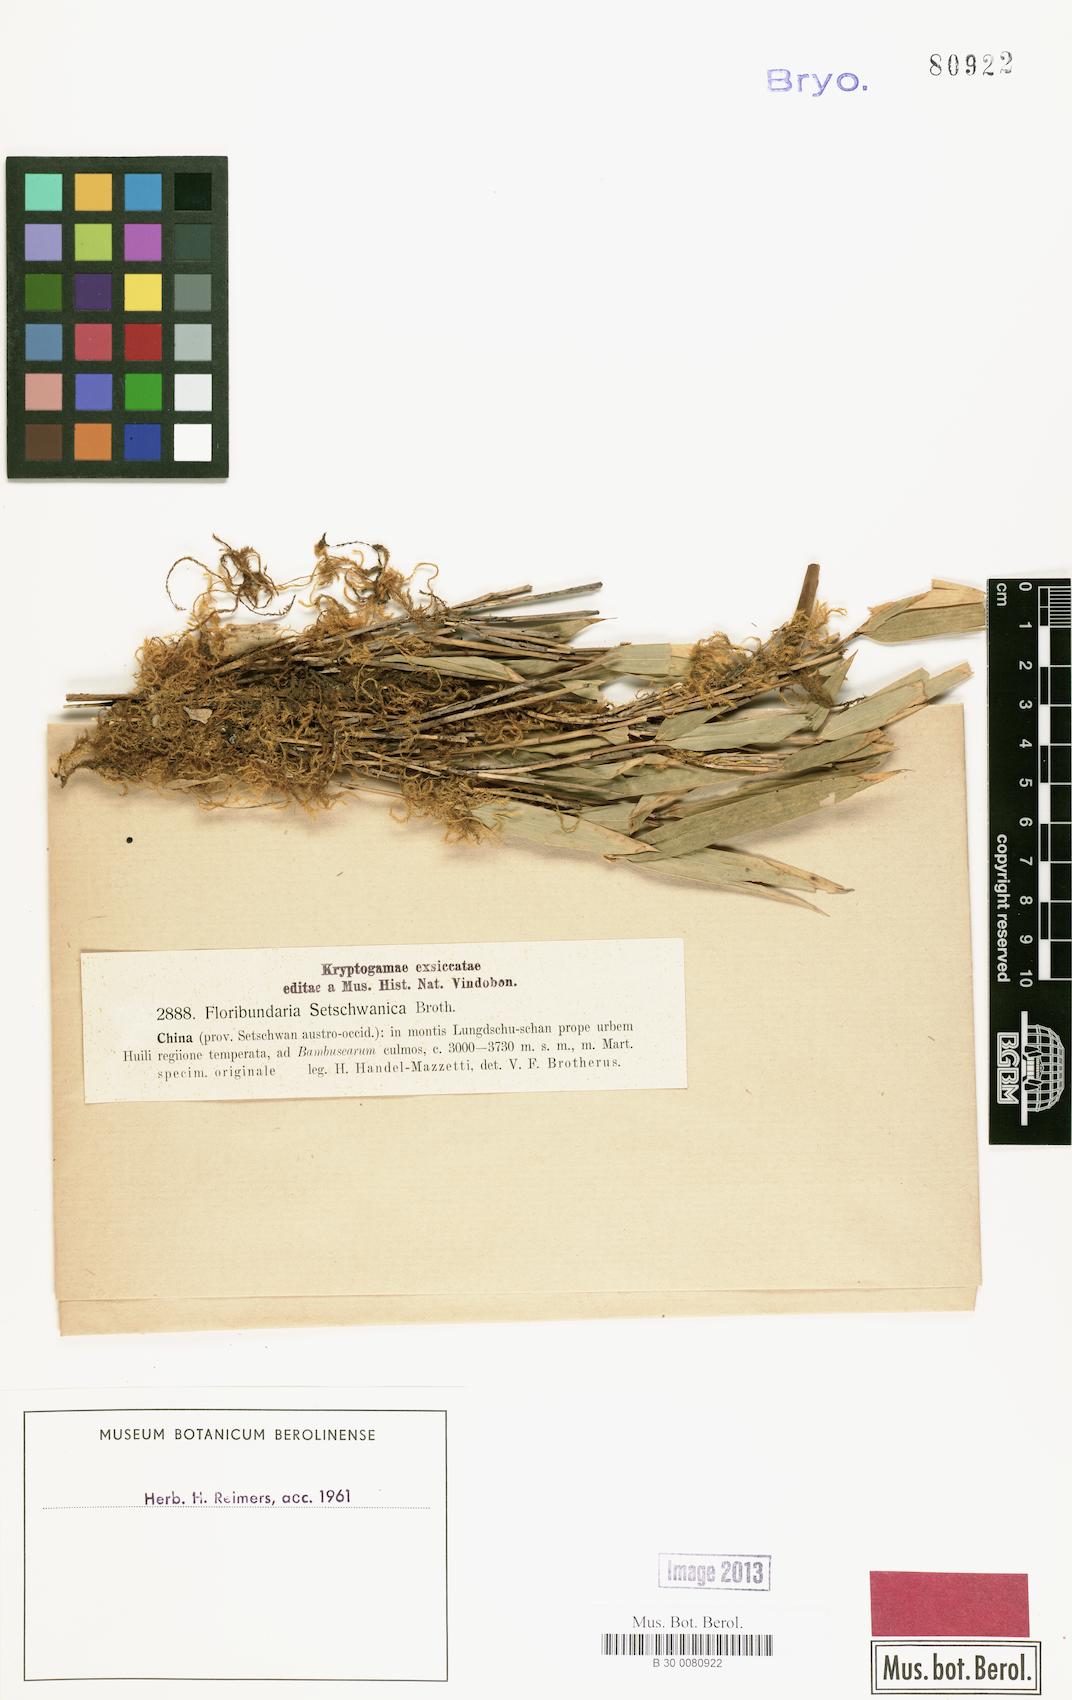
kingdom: Plantae
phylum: Bryophyta
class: Bryopsida
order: Hypnales
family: Meteoriaceae
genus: Floribundaria
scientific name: Floribundaria setschwanica
